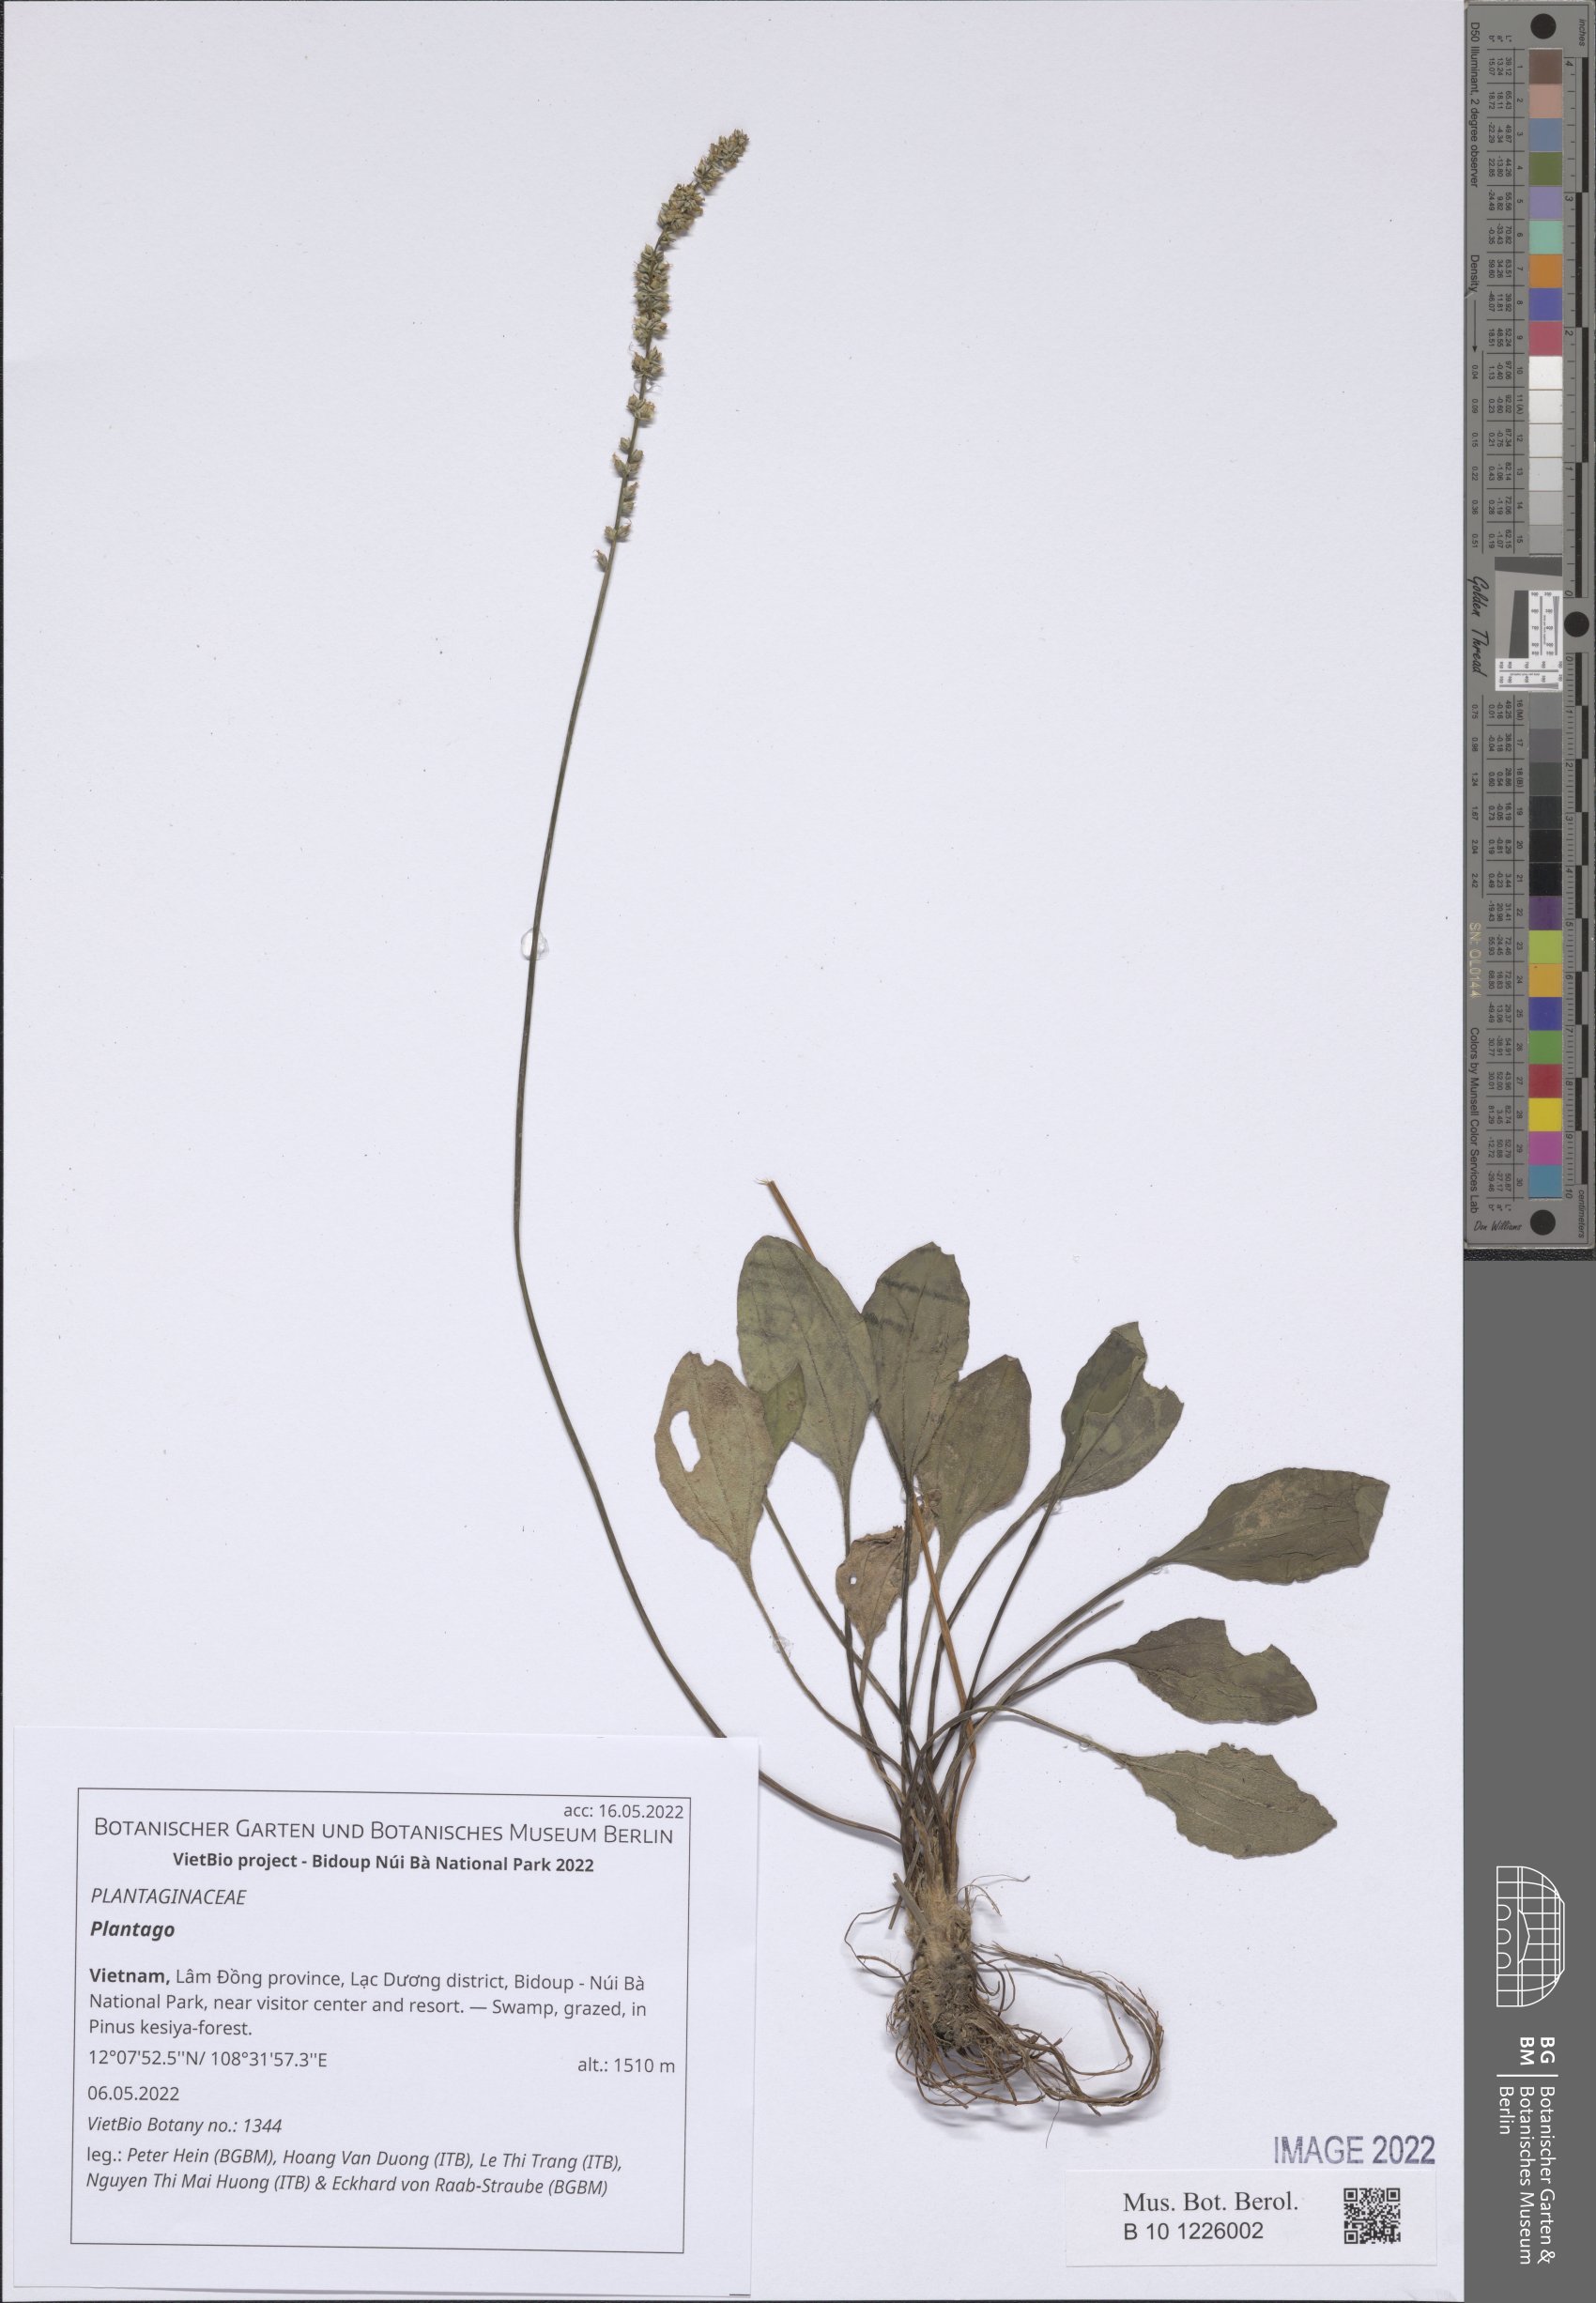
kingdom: Plantae
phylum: Tracheophyta
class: Magnoliopsida
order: Lamiales
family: Plantaginaceae
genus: Plantago
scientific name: Plantago
